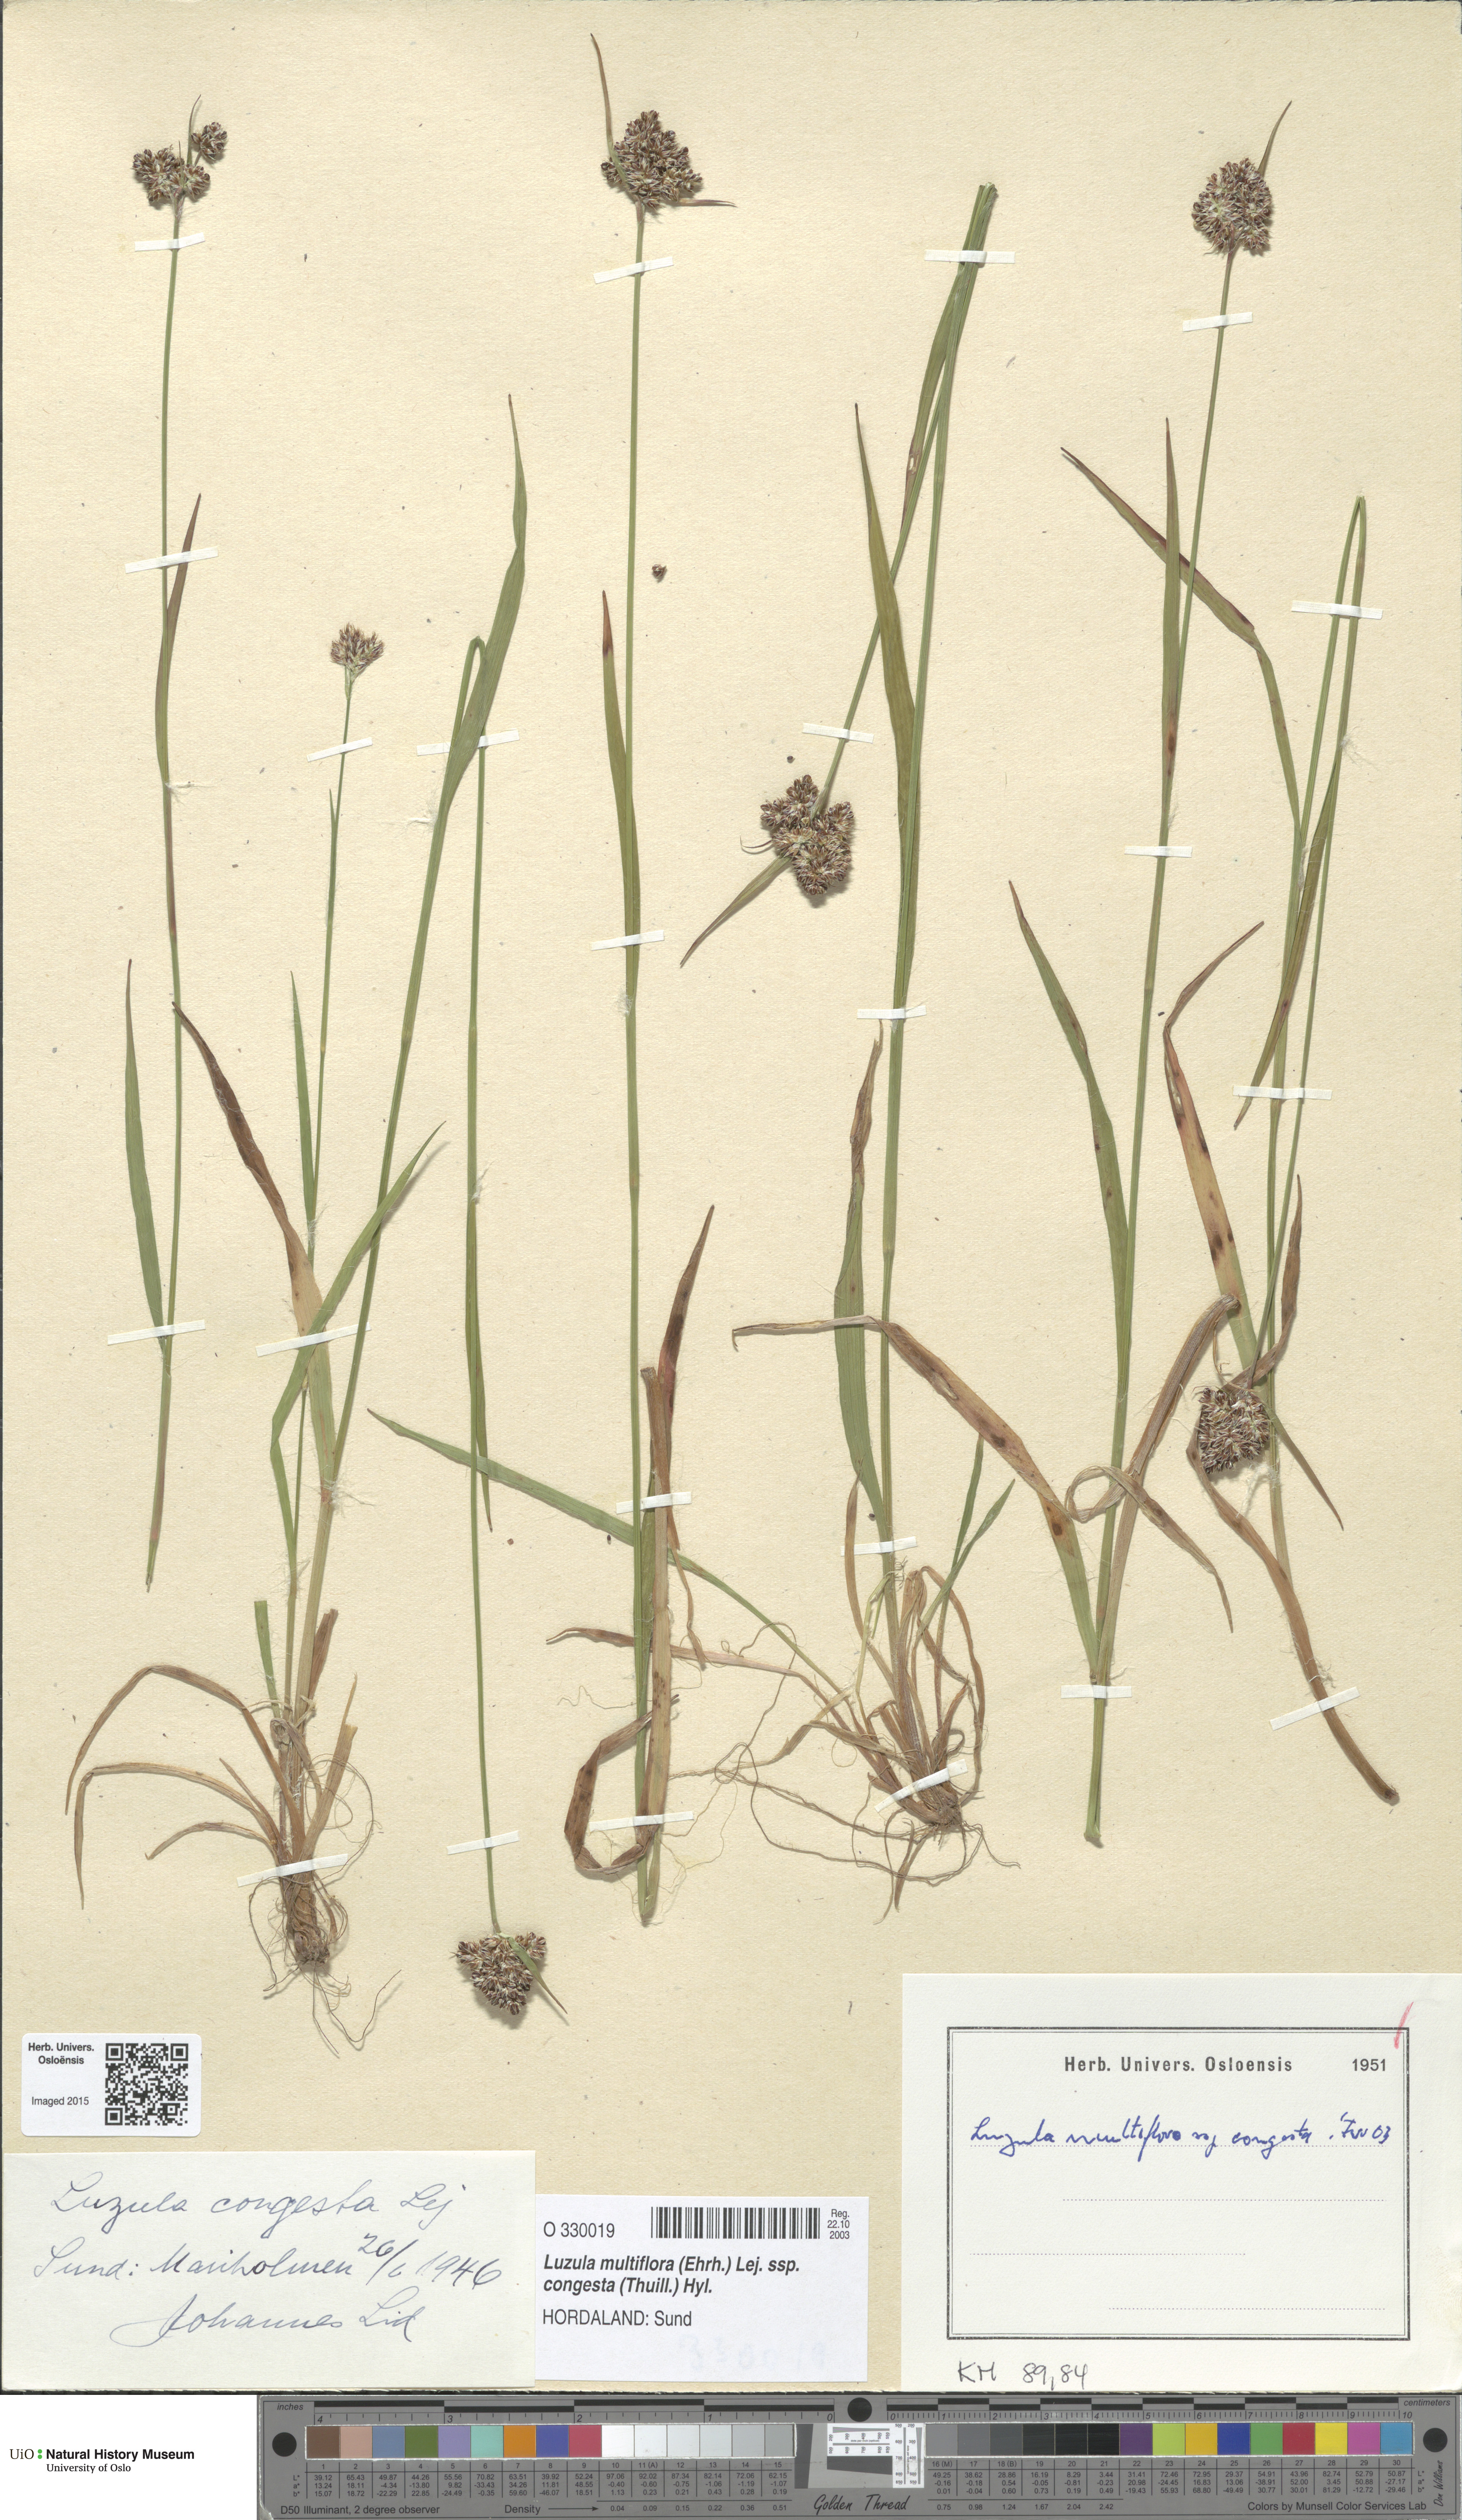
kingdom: Plantae
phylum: Tracheophyta
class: Liliopsida
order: Poales
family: Juncaceae
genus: Luzula
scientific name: Luzula congesta
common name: Heath woodrush
